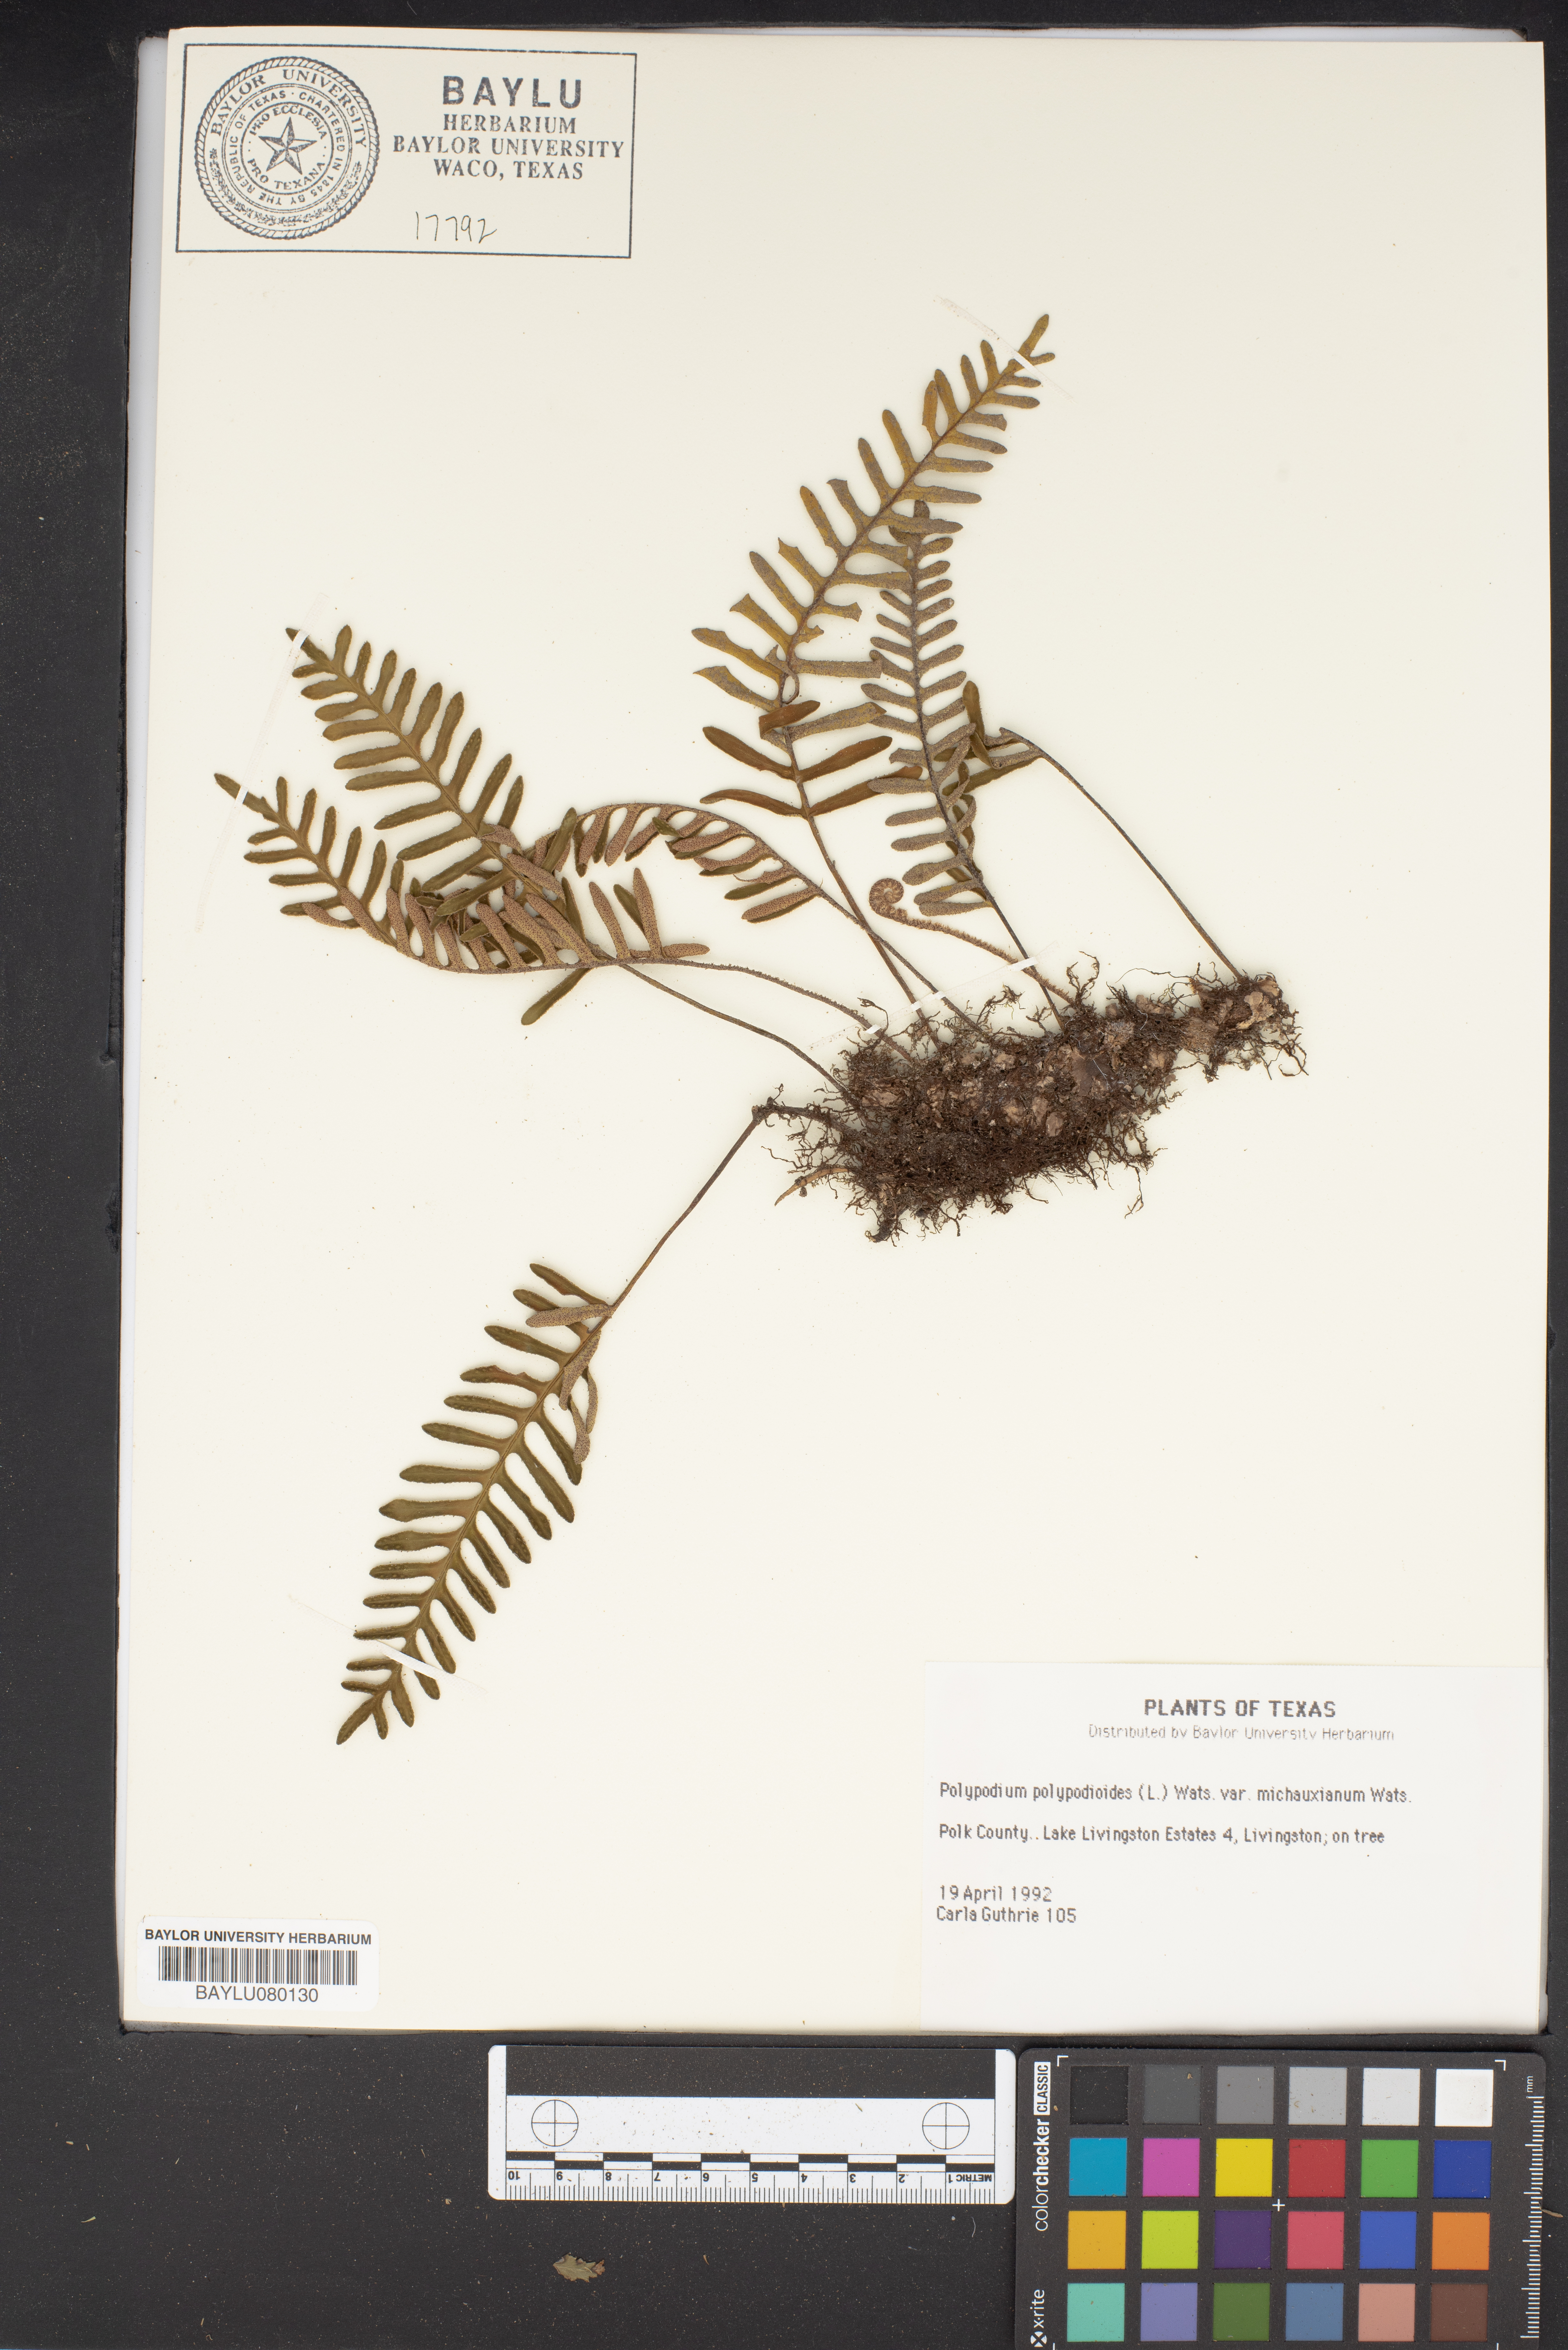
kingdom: Plantae
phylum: Tracheophyta
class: Polypodiopsida
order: Polypodiales
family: Polypodiaceae
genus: Pleopeltis
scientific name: Pleopeltis polypodioides
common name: Resurrection fern
